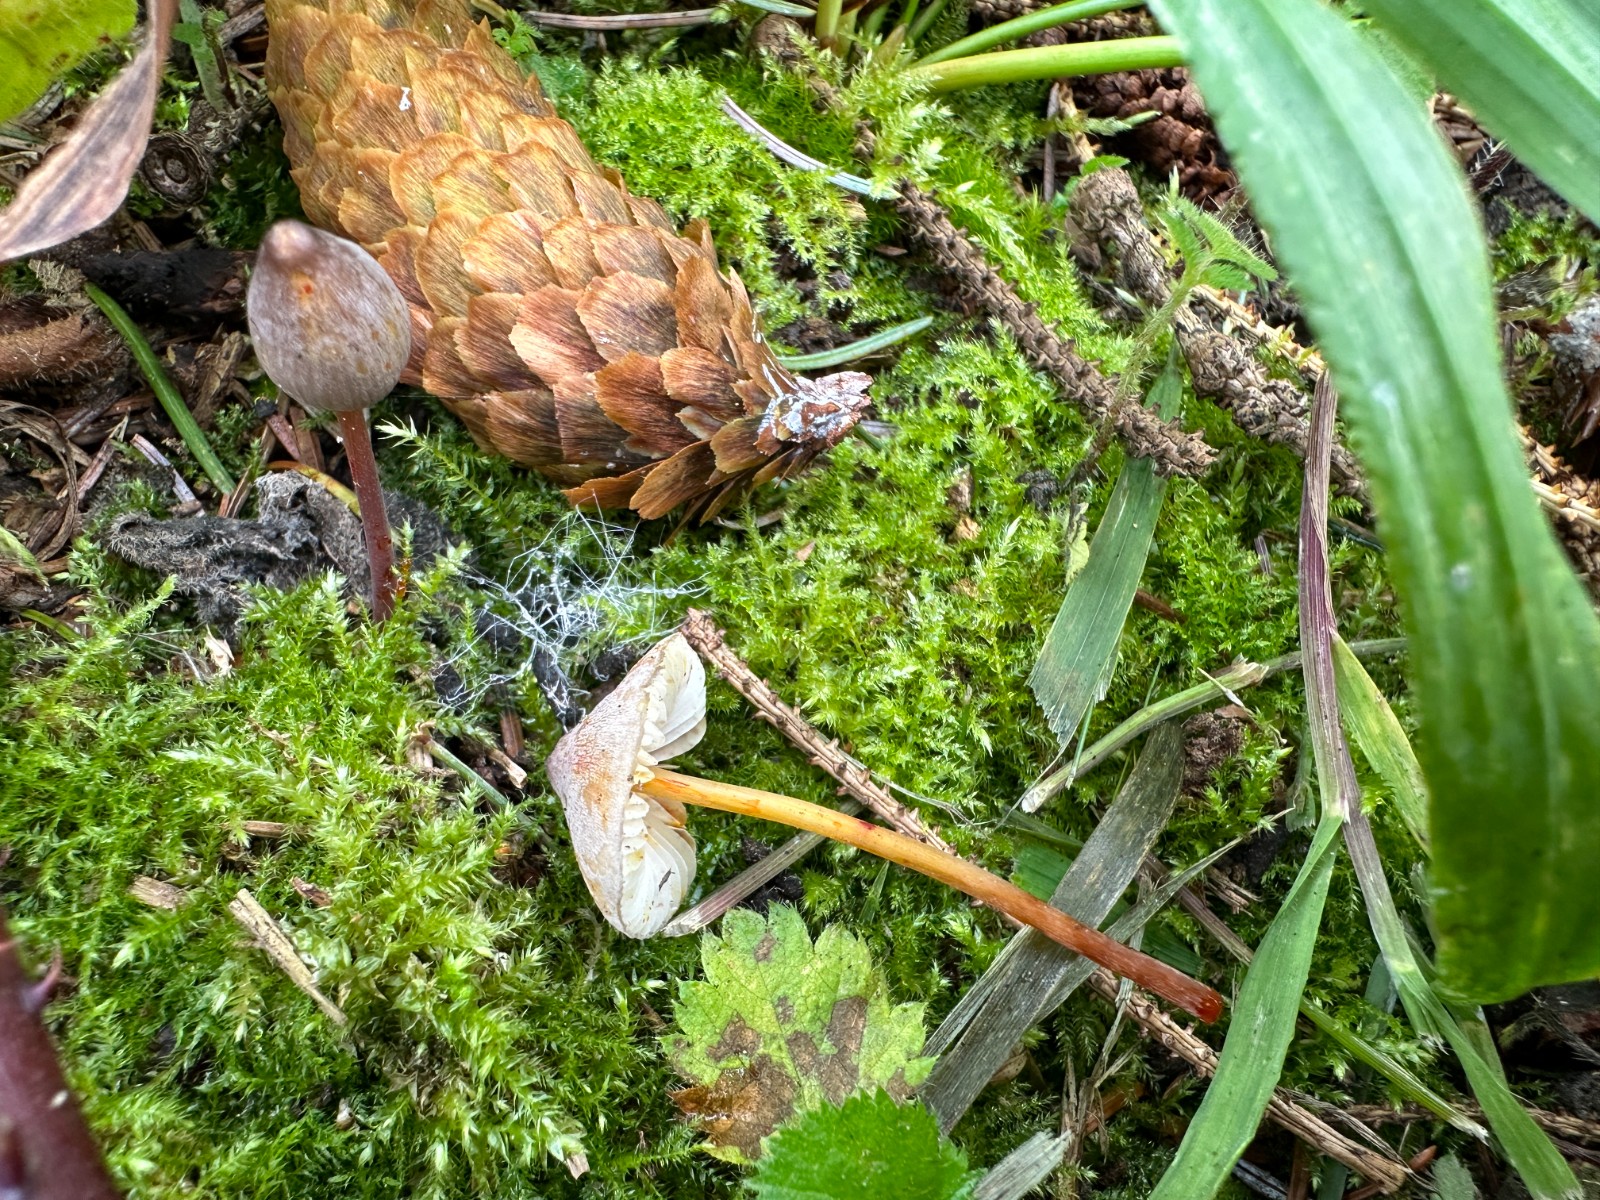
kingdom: Fungi
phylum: Basidiomycota
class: Agaricomycetes
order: Agaricales
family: Mycenaceae
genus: Mycena
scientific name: Mycena crocata
